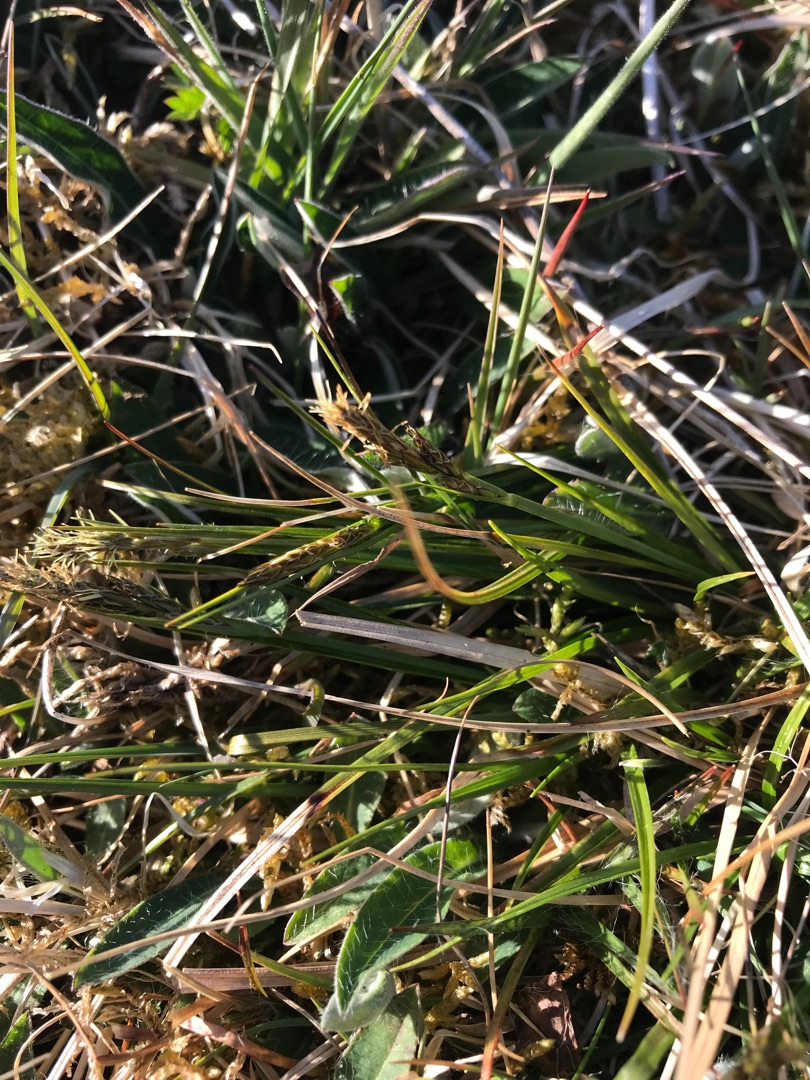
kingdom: Plantae
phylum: Tracheophyta
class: Liliopsida
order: Poales
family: Cyperaceae
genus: Carex
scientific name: Carex pilulifera
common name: Pille-star
